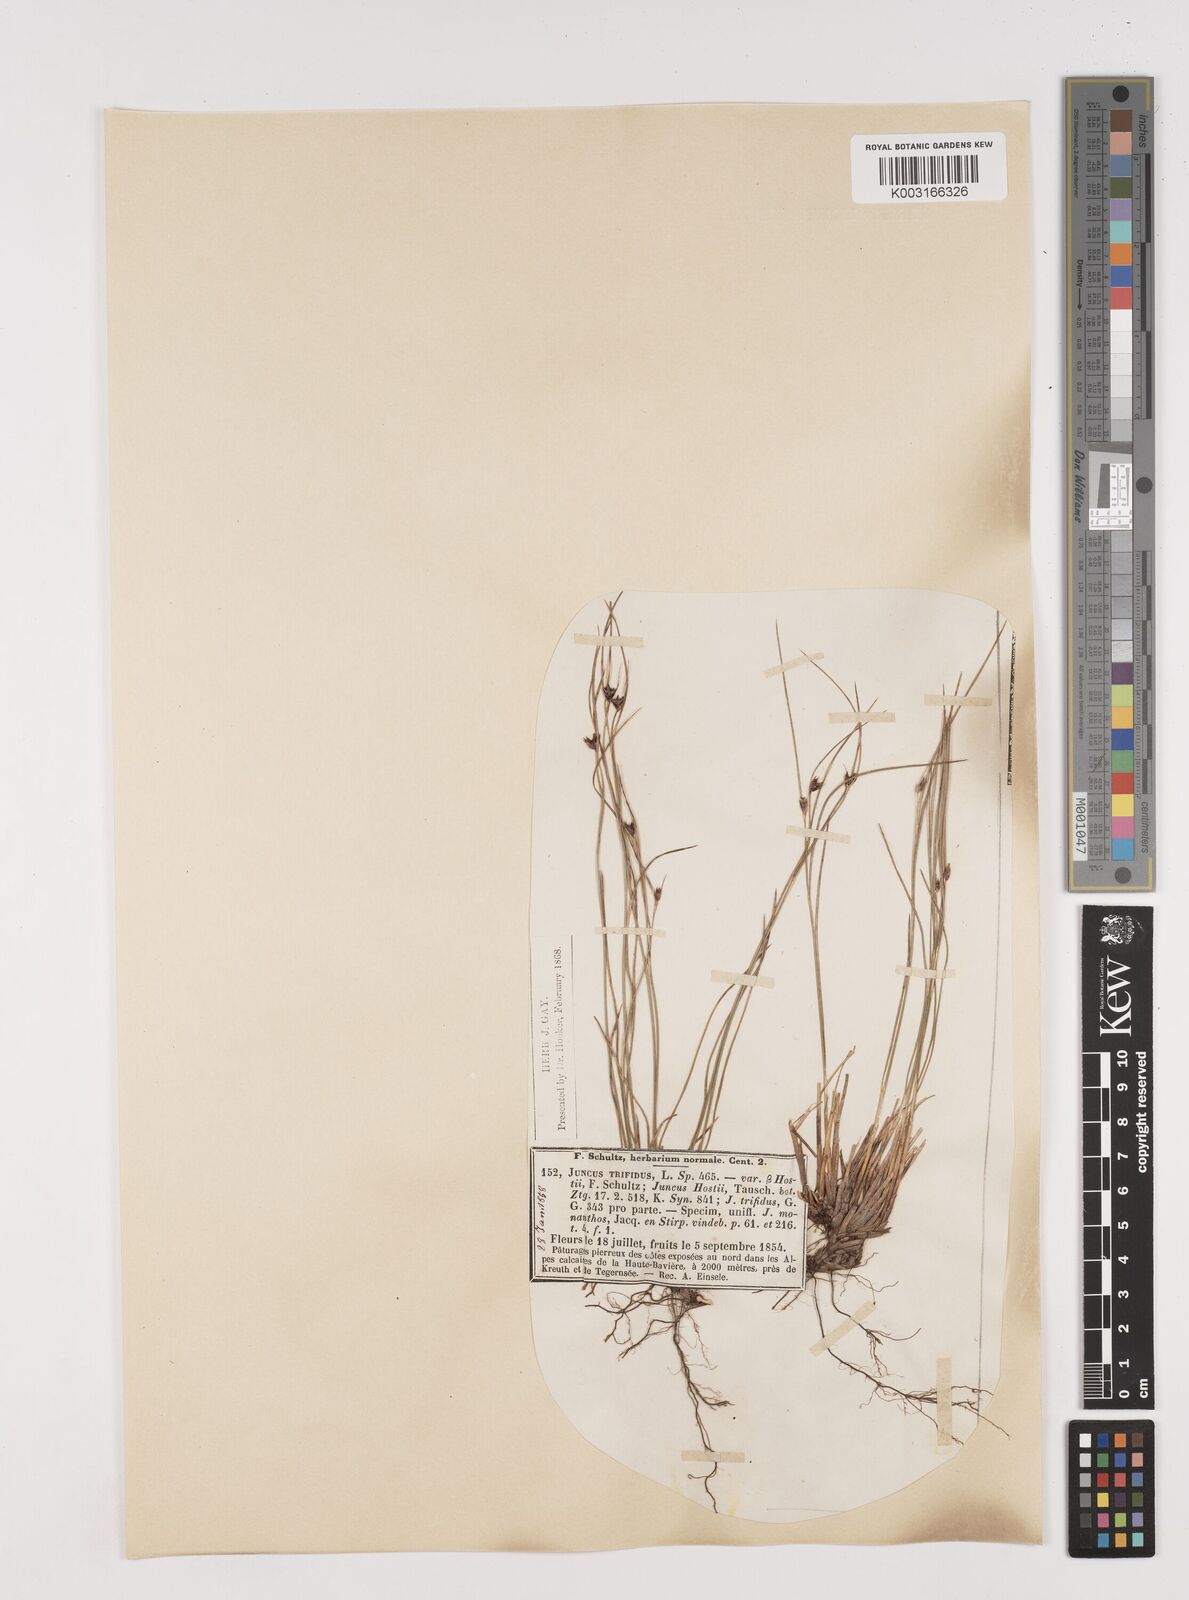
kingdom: Plantae
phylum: Tracheophyta
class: Liliopsida
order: Poales
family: Juncaceae
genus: Oreojuncus
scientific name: Oreojuncus trifidus
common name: Highland rush
